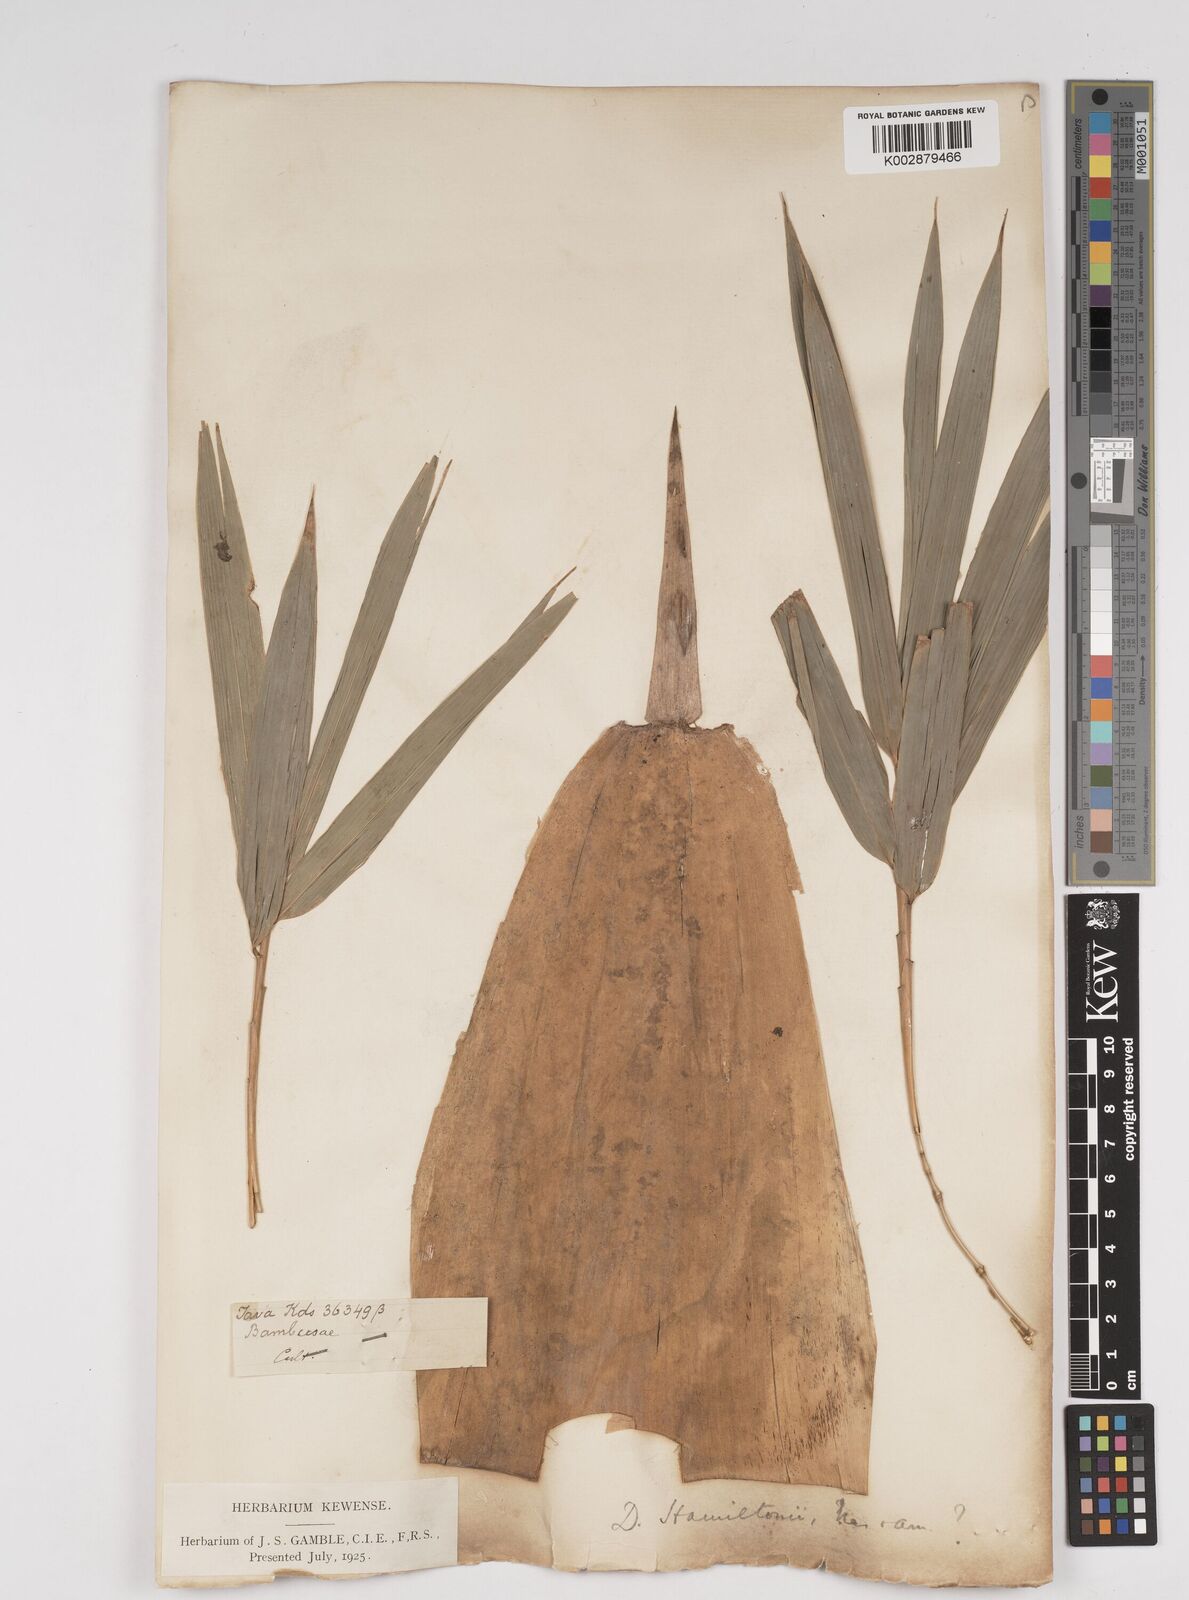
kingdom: Plantae
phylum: Tracheophyta
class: Liliopsida
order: Poales
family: Poaceae
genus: Dendrocalamus
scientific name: Dendrocalamus hamiltonii
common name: Tama bamboo
